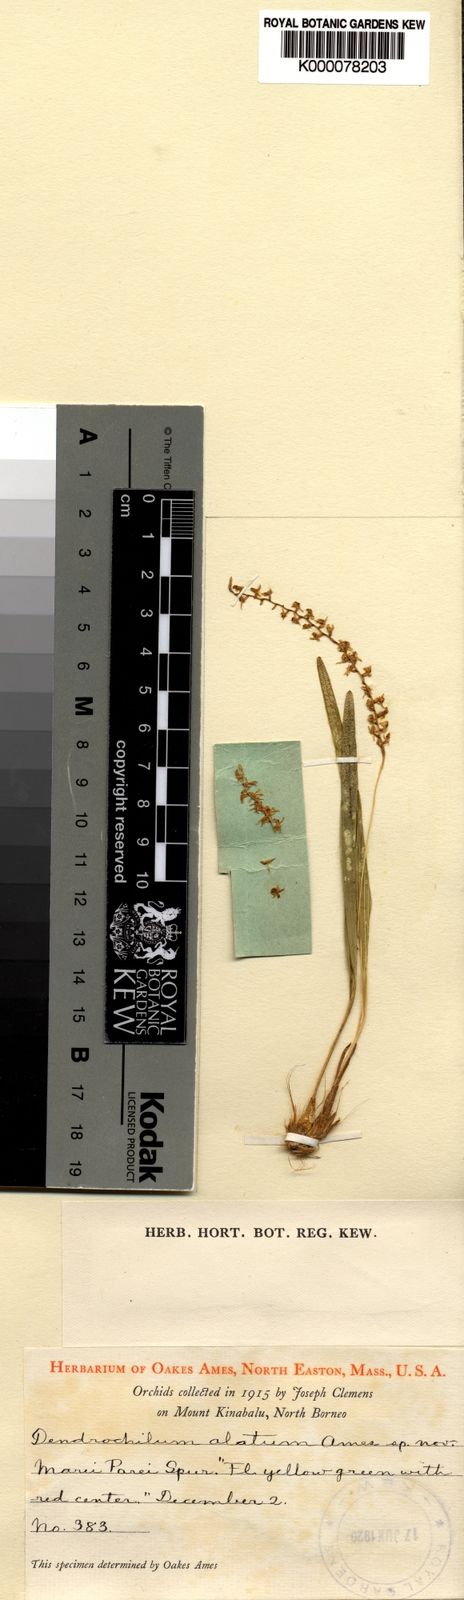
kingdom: Plantae
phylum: Tracheophyta
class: Liliopsida
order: Asparagales
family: Orchidaceae
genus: Coelogyne
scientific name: Coelogyne alata
